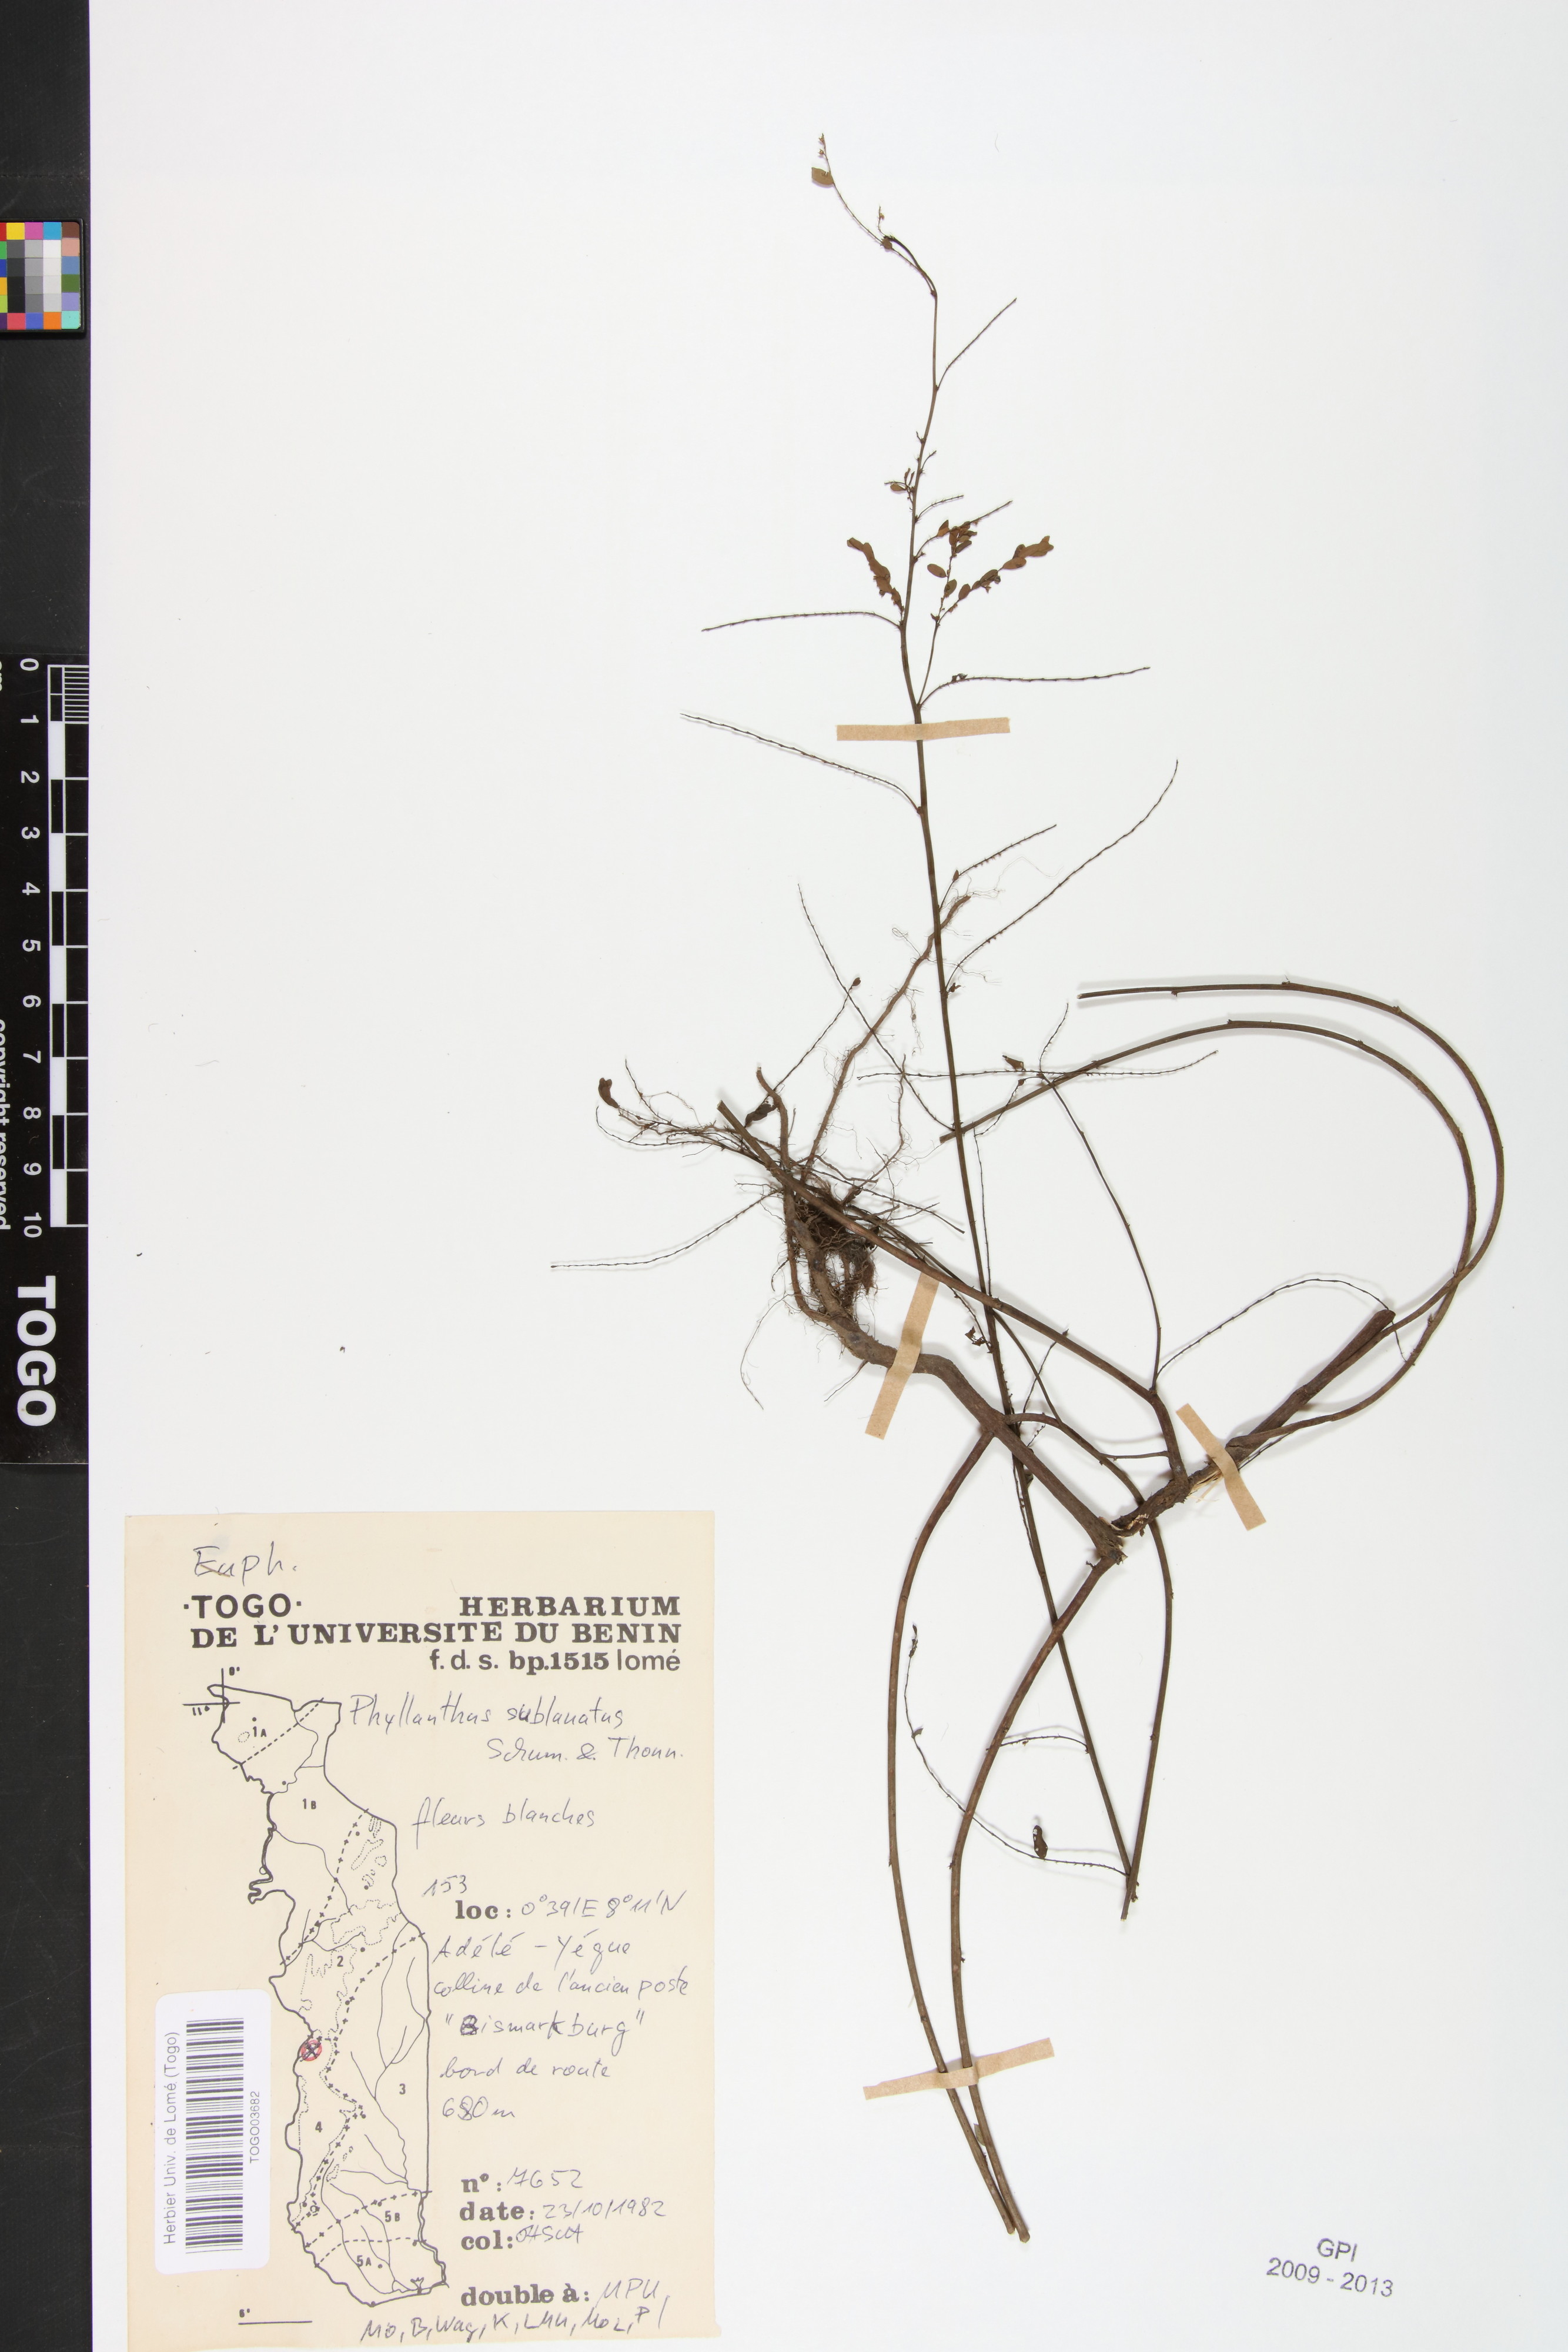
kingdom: Plantae
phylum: Tracheophyta
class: Magnoliopsida
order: Malpighiales
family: Phyllanthaceae
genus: Phyllanthus
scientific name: Phyllanthus sublanatus
